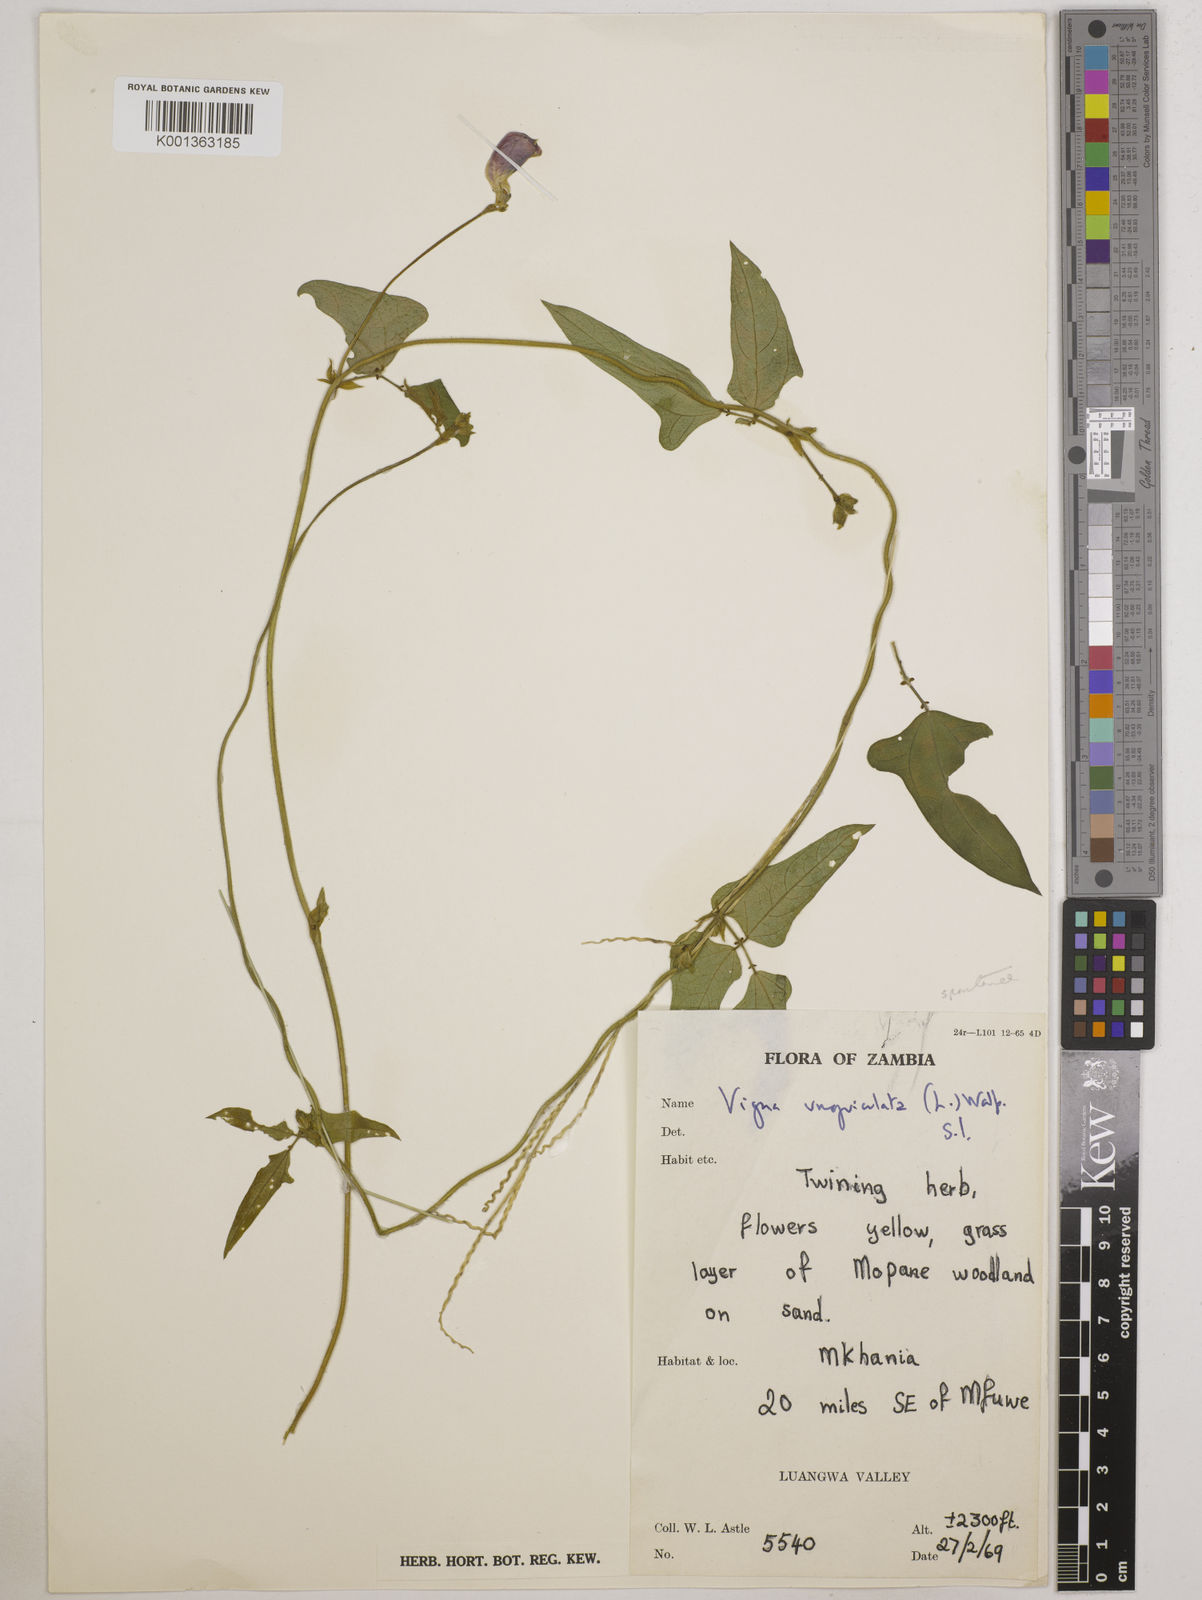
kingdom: Plantae
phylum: Tracheophyta
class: Magnoliopsida
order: Fabales
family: Fabaceae
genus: Vigna
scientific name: Vigna unguiculata
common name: Cowpea
